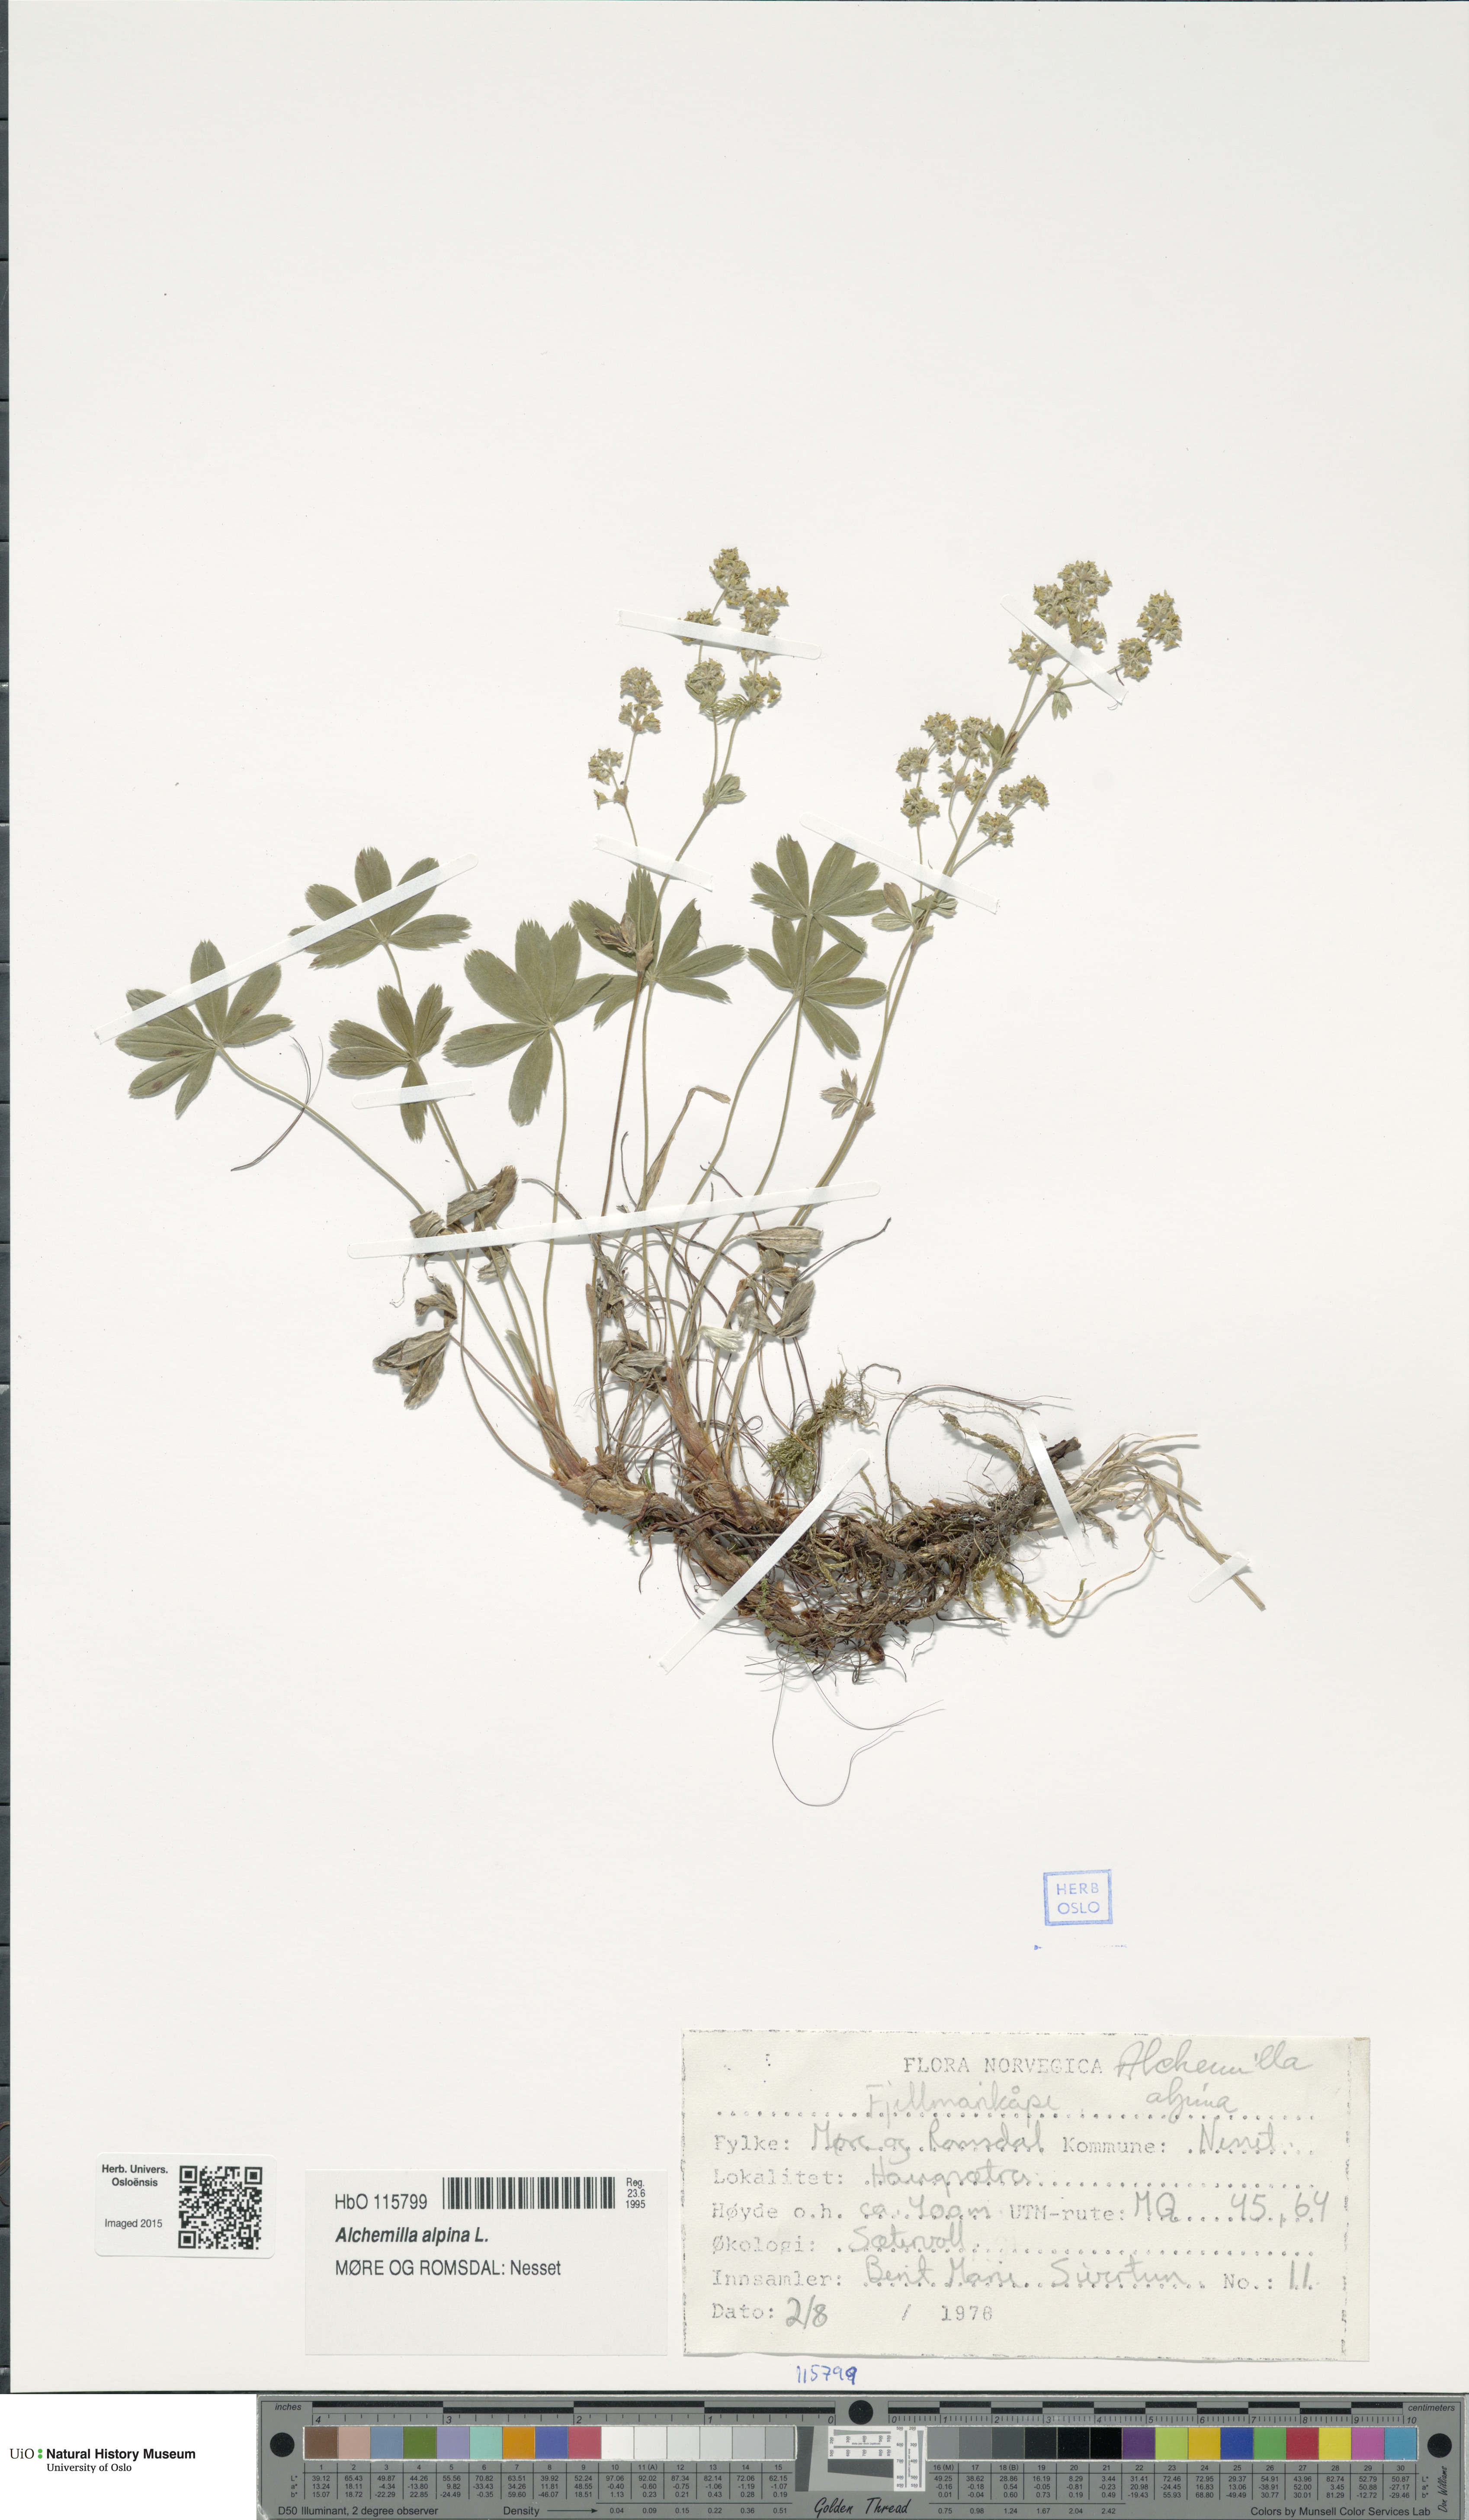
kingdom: Plantae
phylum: Tracheophyta
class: Magnoliopsida
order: Rosales
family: Rosaceae
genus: Alchemilla
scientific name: Alchemilla alpina
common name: Alpine lady's-mantle
